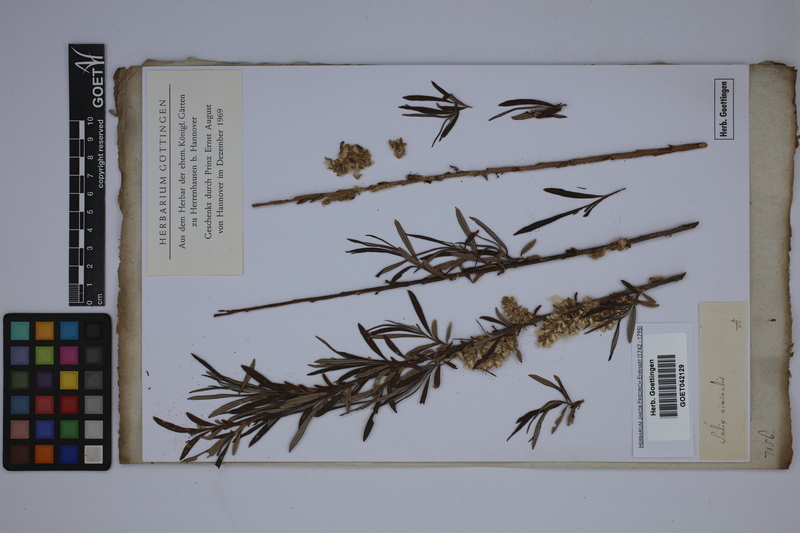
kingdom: Plantae
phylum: Tracheophyta
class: Magnoliopsida
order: Malpighiales
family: Salicaceae
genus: Salix
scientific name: Salix viminalis
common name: Osier
